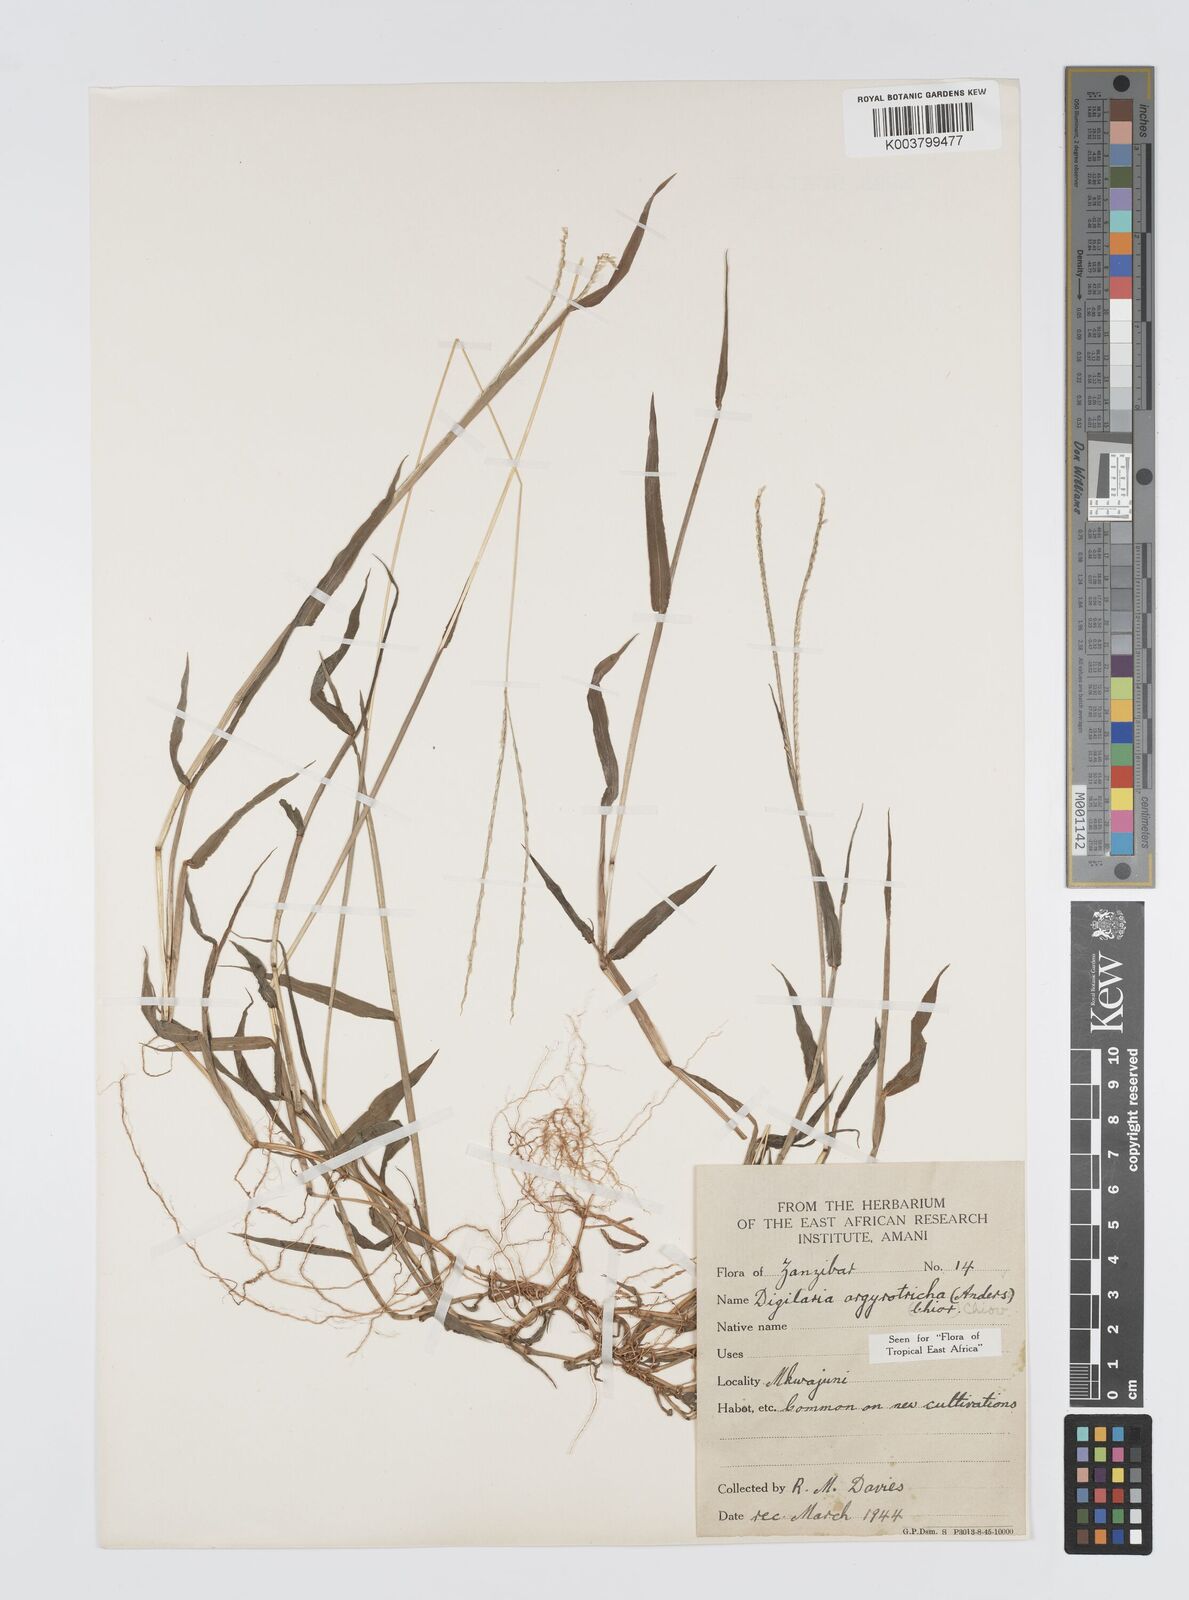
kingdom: Plantae
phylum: Tracheophyta
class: Liliopsida
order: Poales
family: Poaceae
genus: Digitaria
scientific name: Digitaria argyrotricha
